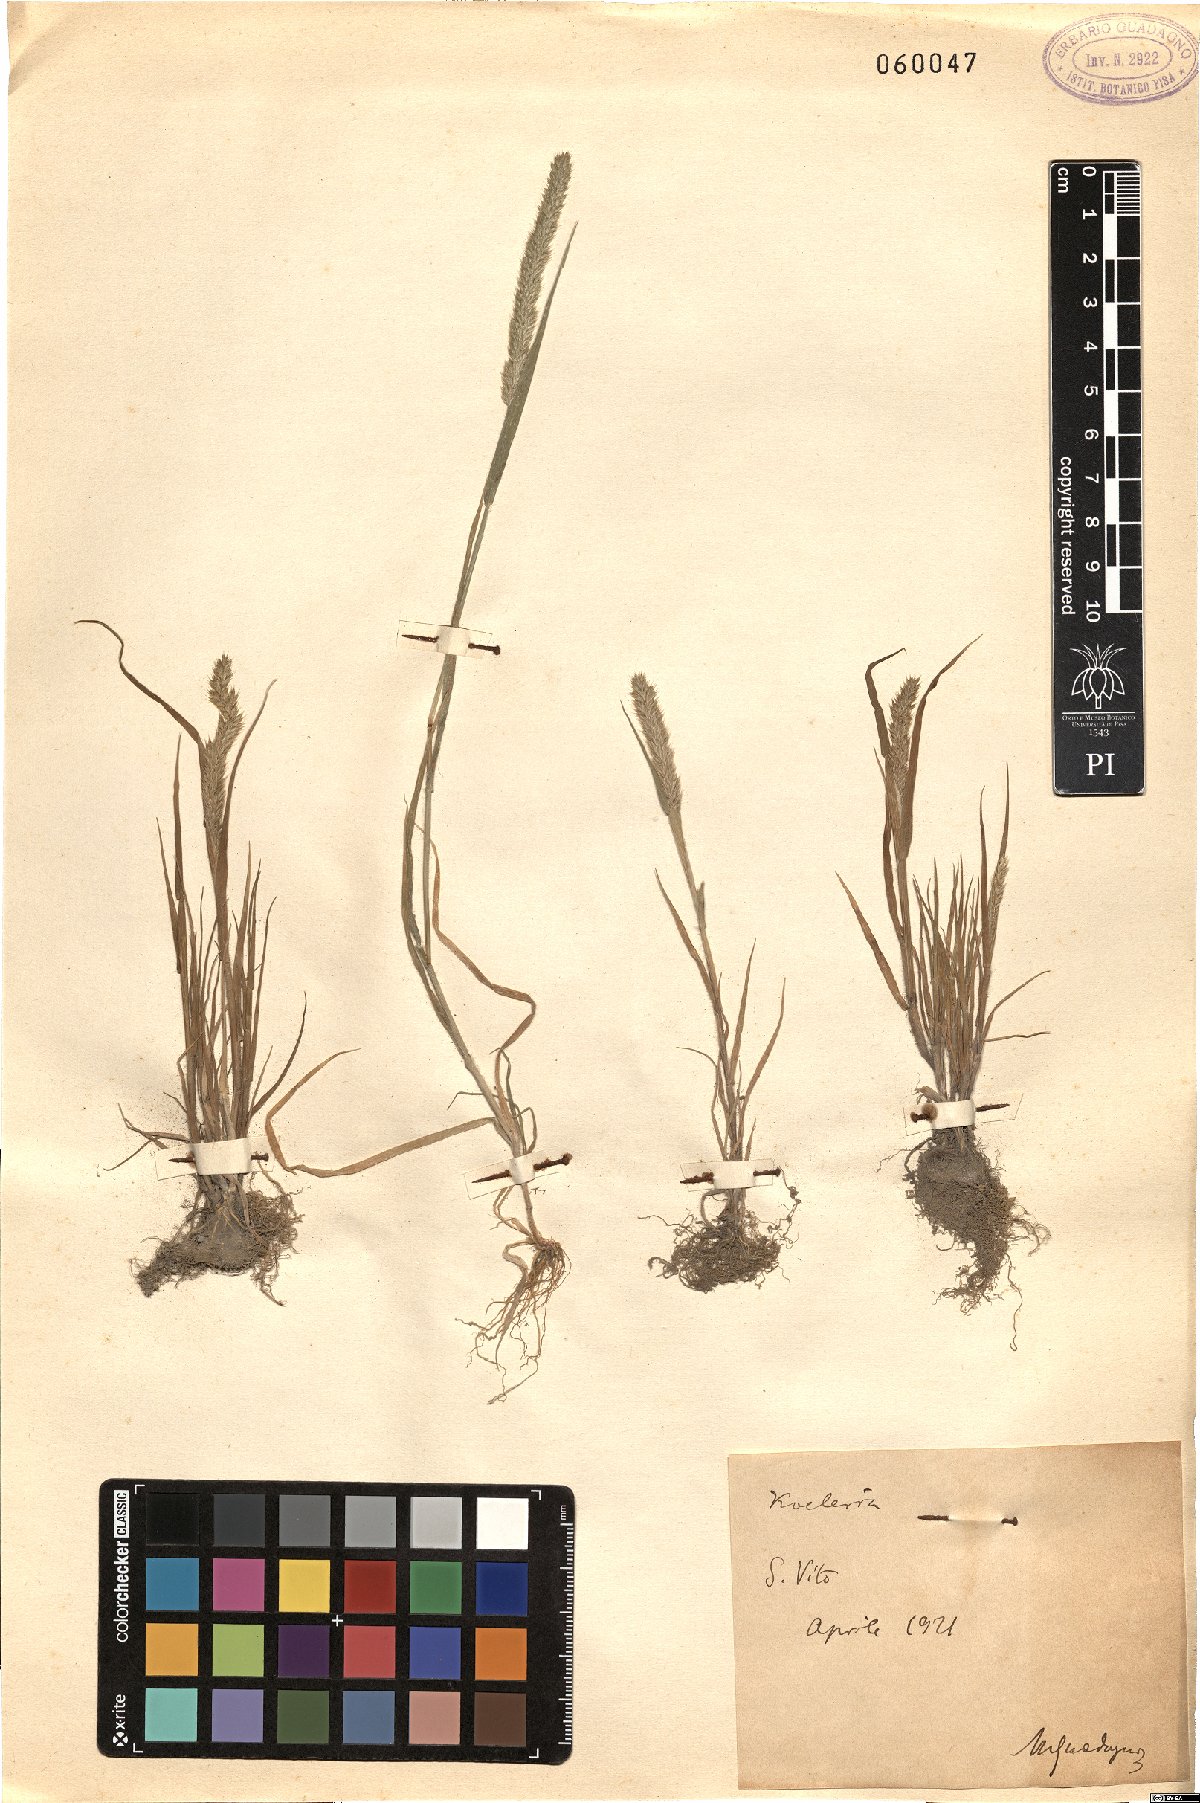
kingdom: Plantae
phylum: Tracheophyta
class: Liliopsida
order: Poales
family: Poaceae
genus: Koeleria
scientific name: Koeleria
